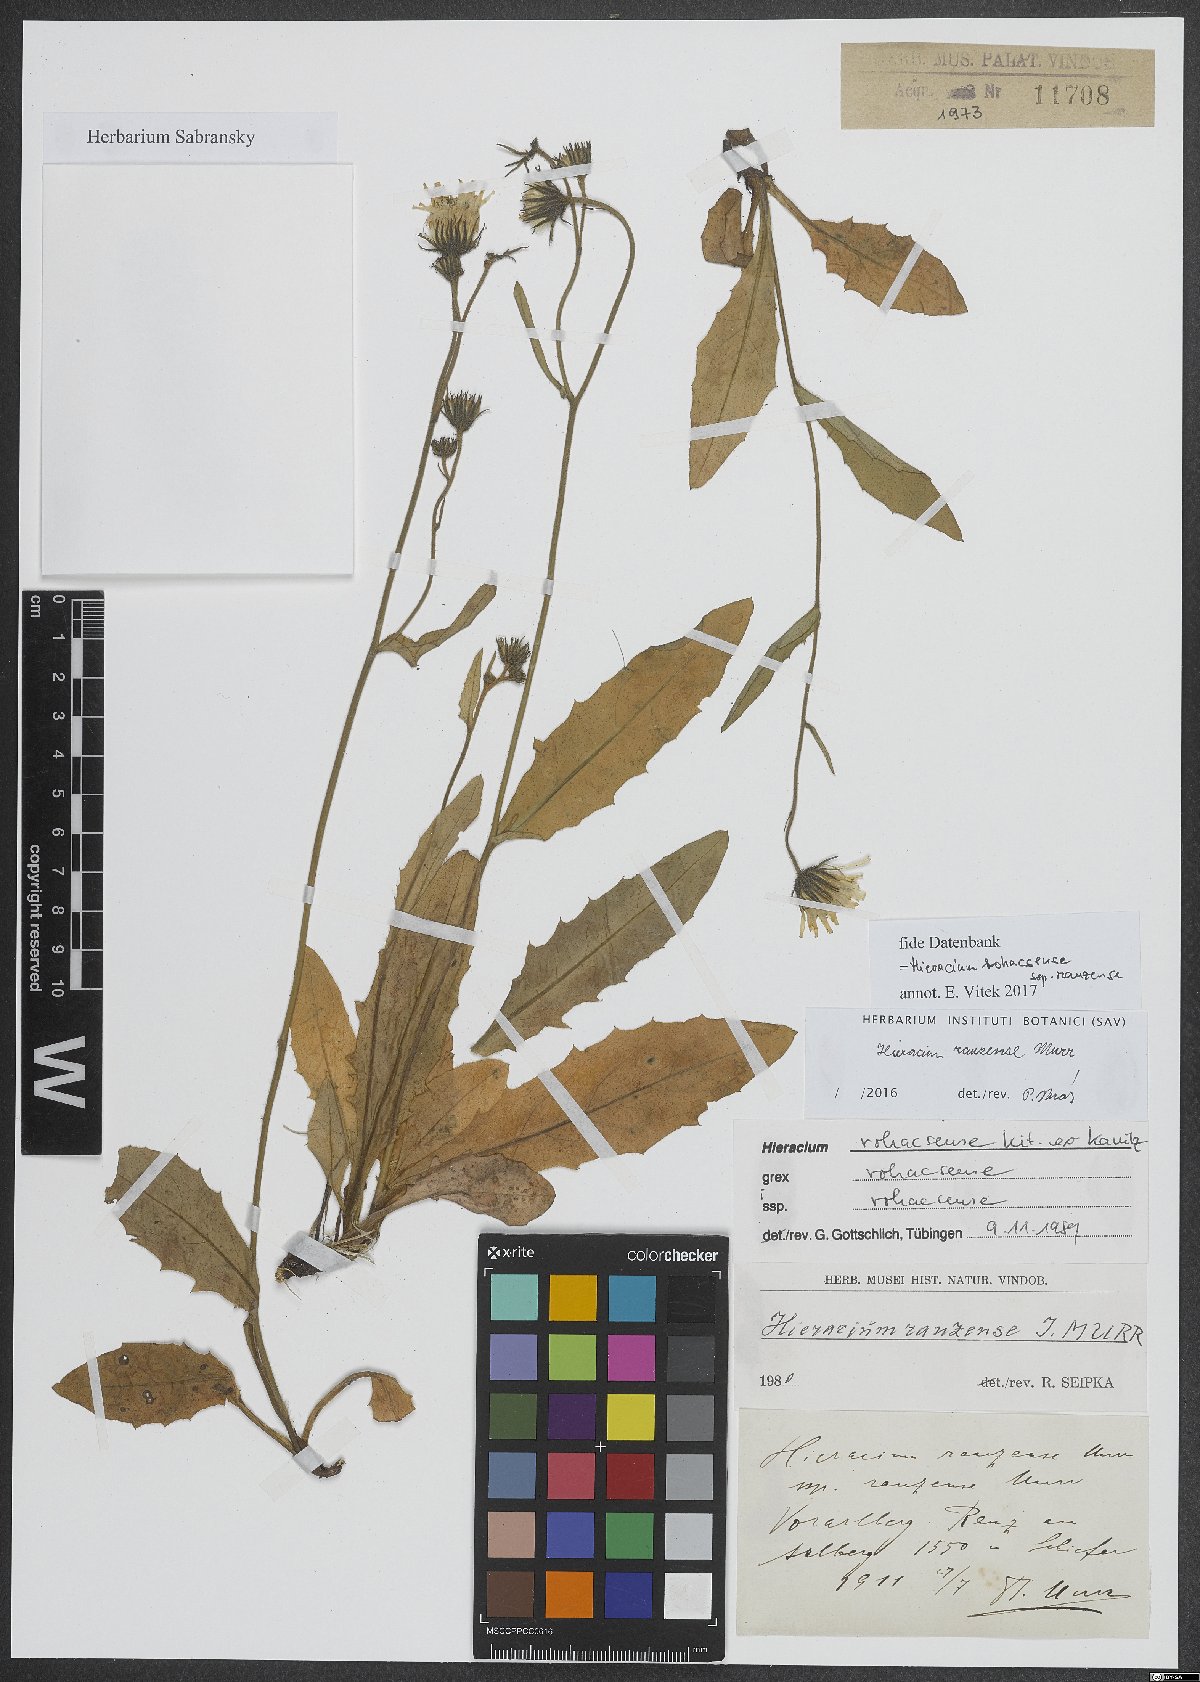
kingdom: Plantae
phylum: Tracheophyta
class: Magnoliopsida
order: Asterales
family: Asteraceae
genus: Hieracium
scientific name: Hieracium rauzense
